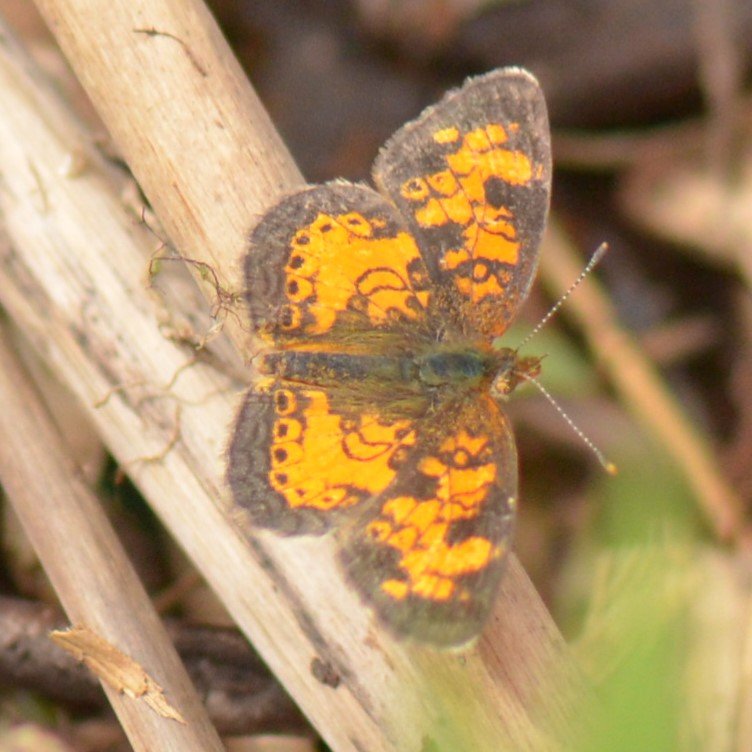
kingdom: Animalia
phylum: Arthropoda
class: Insecta
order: Lepidoptera
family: Nymphalidae
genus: Phyciodes
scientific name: Phyciodes tharos
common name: Northern Crescent
